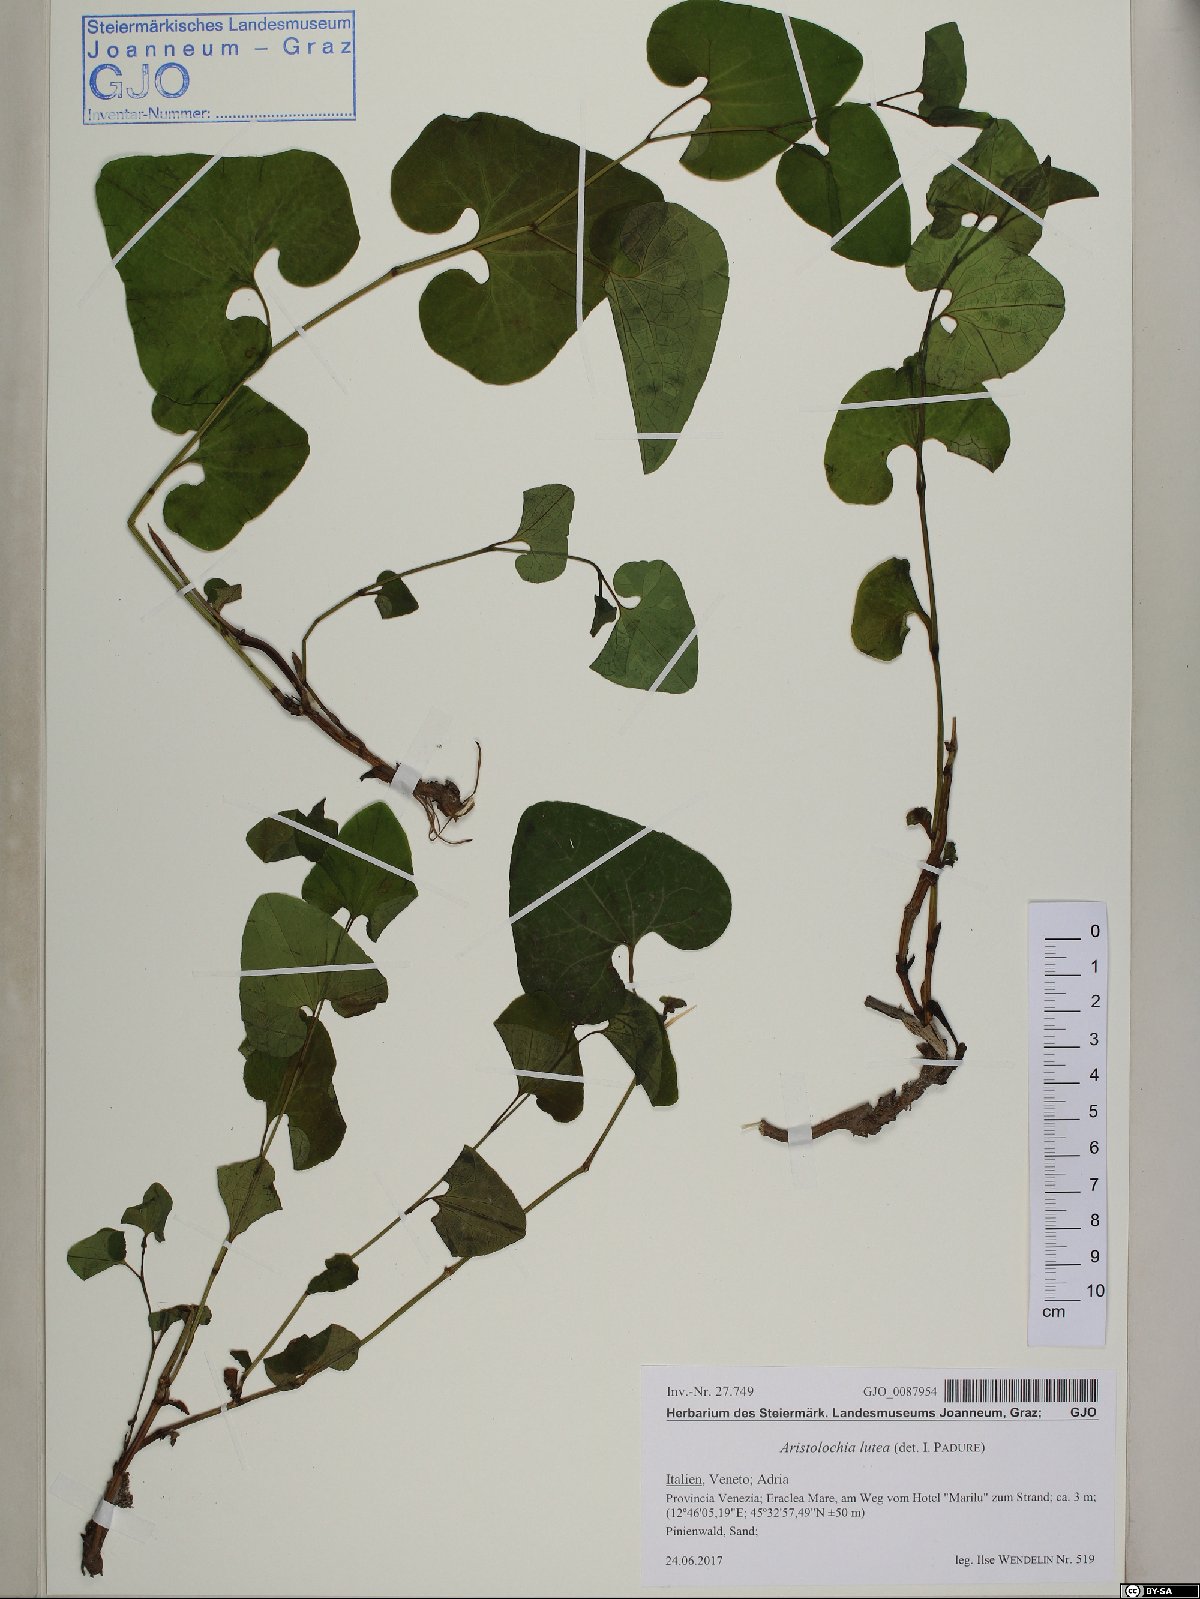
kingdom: Plantae
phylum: Tracheophyta
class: Magnoliopsida
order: Piperales
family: Aristolochiaceae
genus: Aristolochia
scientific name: Aristolochia lutea
